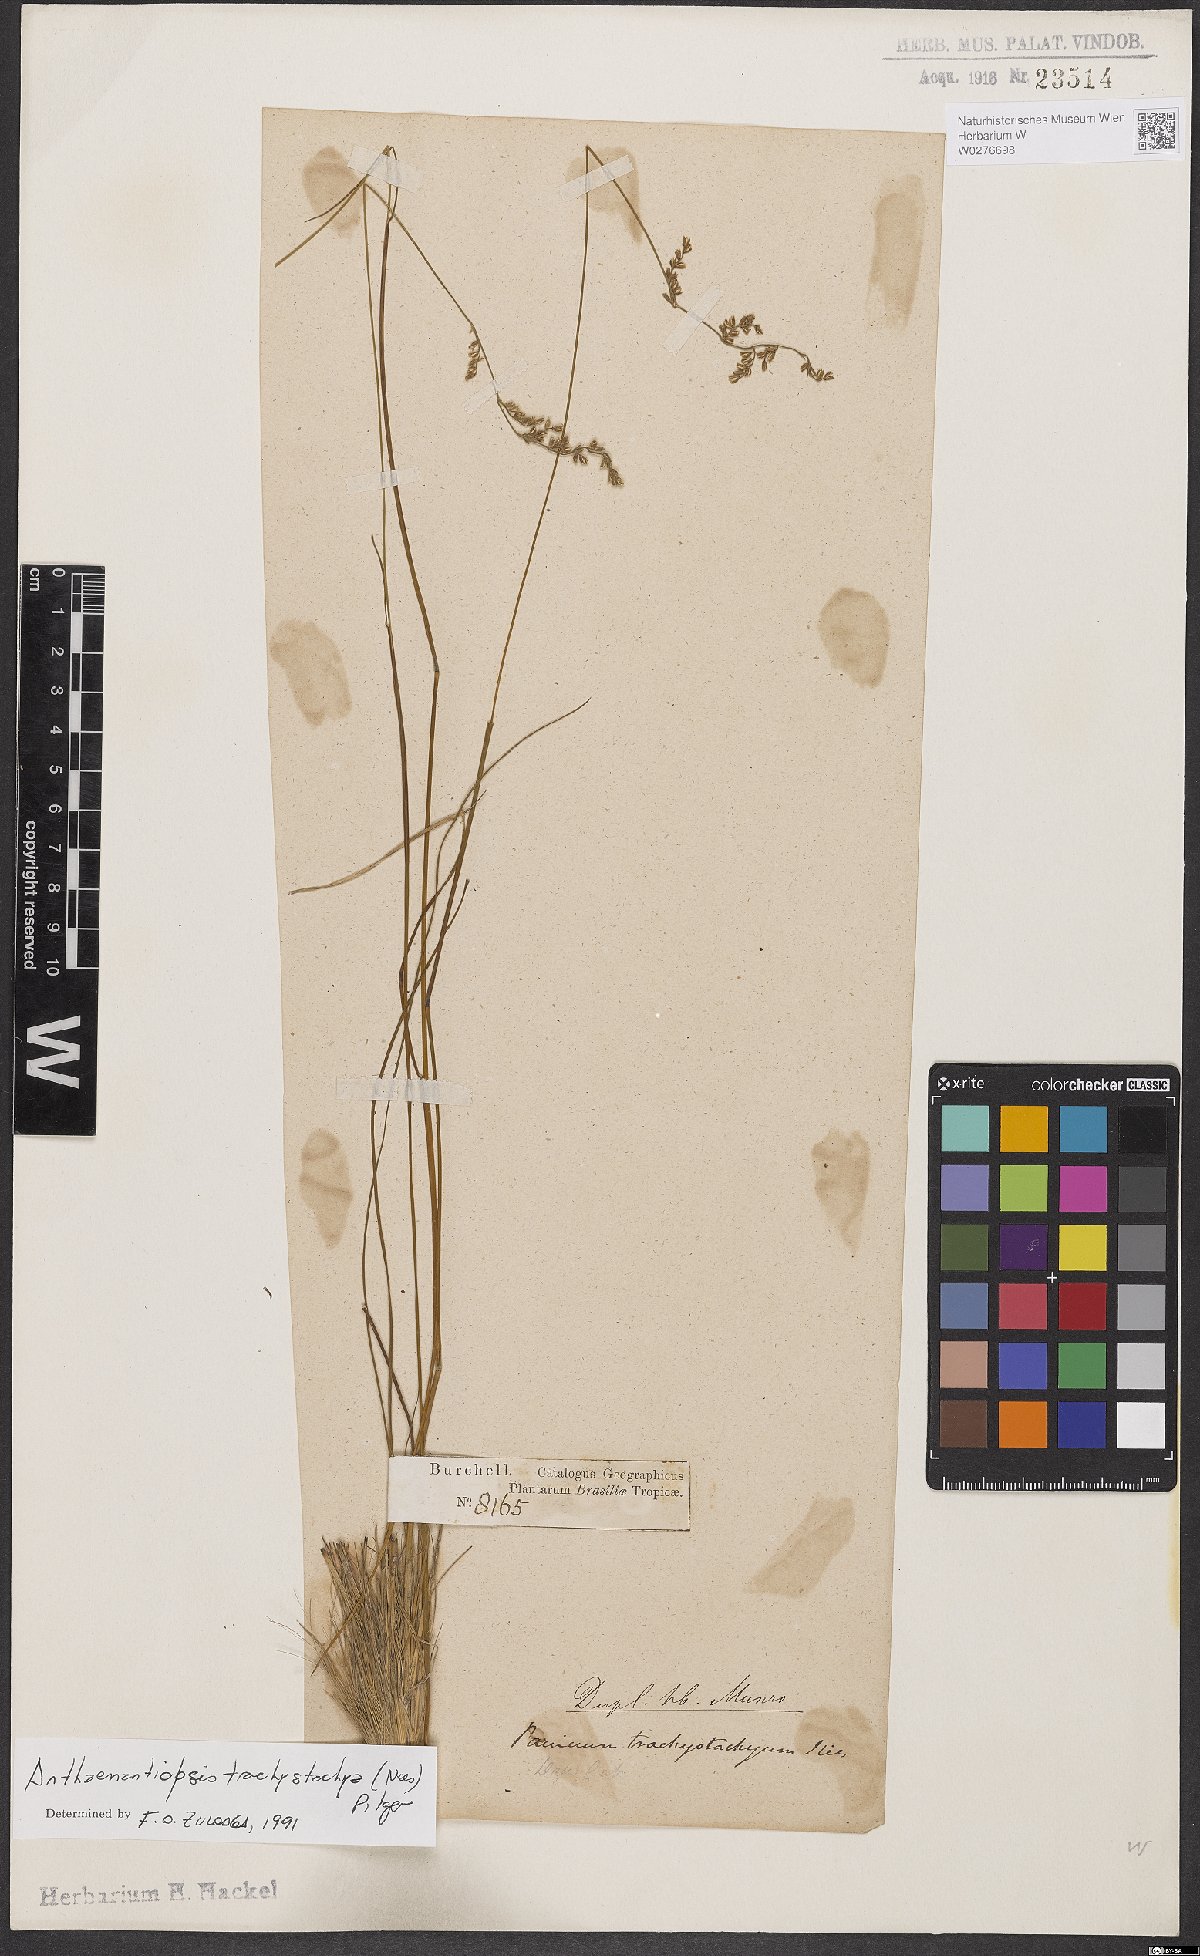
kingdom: Plantae
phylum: Tracheophyta
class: Liliopsida
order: Poales
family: Poaceae
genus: Anthaenantiopsis
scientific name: Anthaenantiopsis trachystachya
